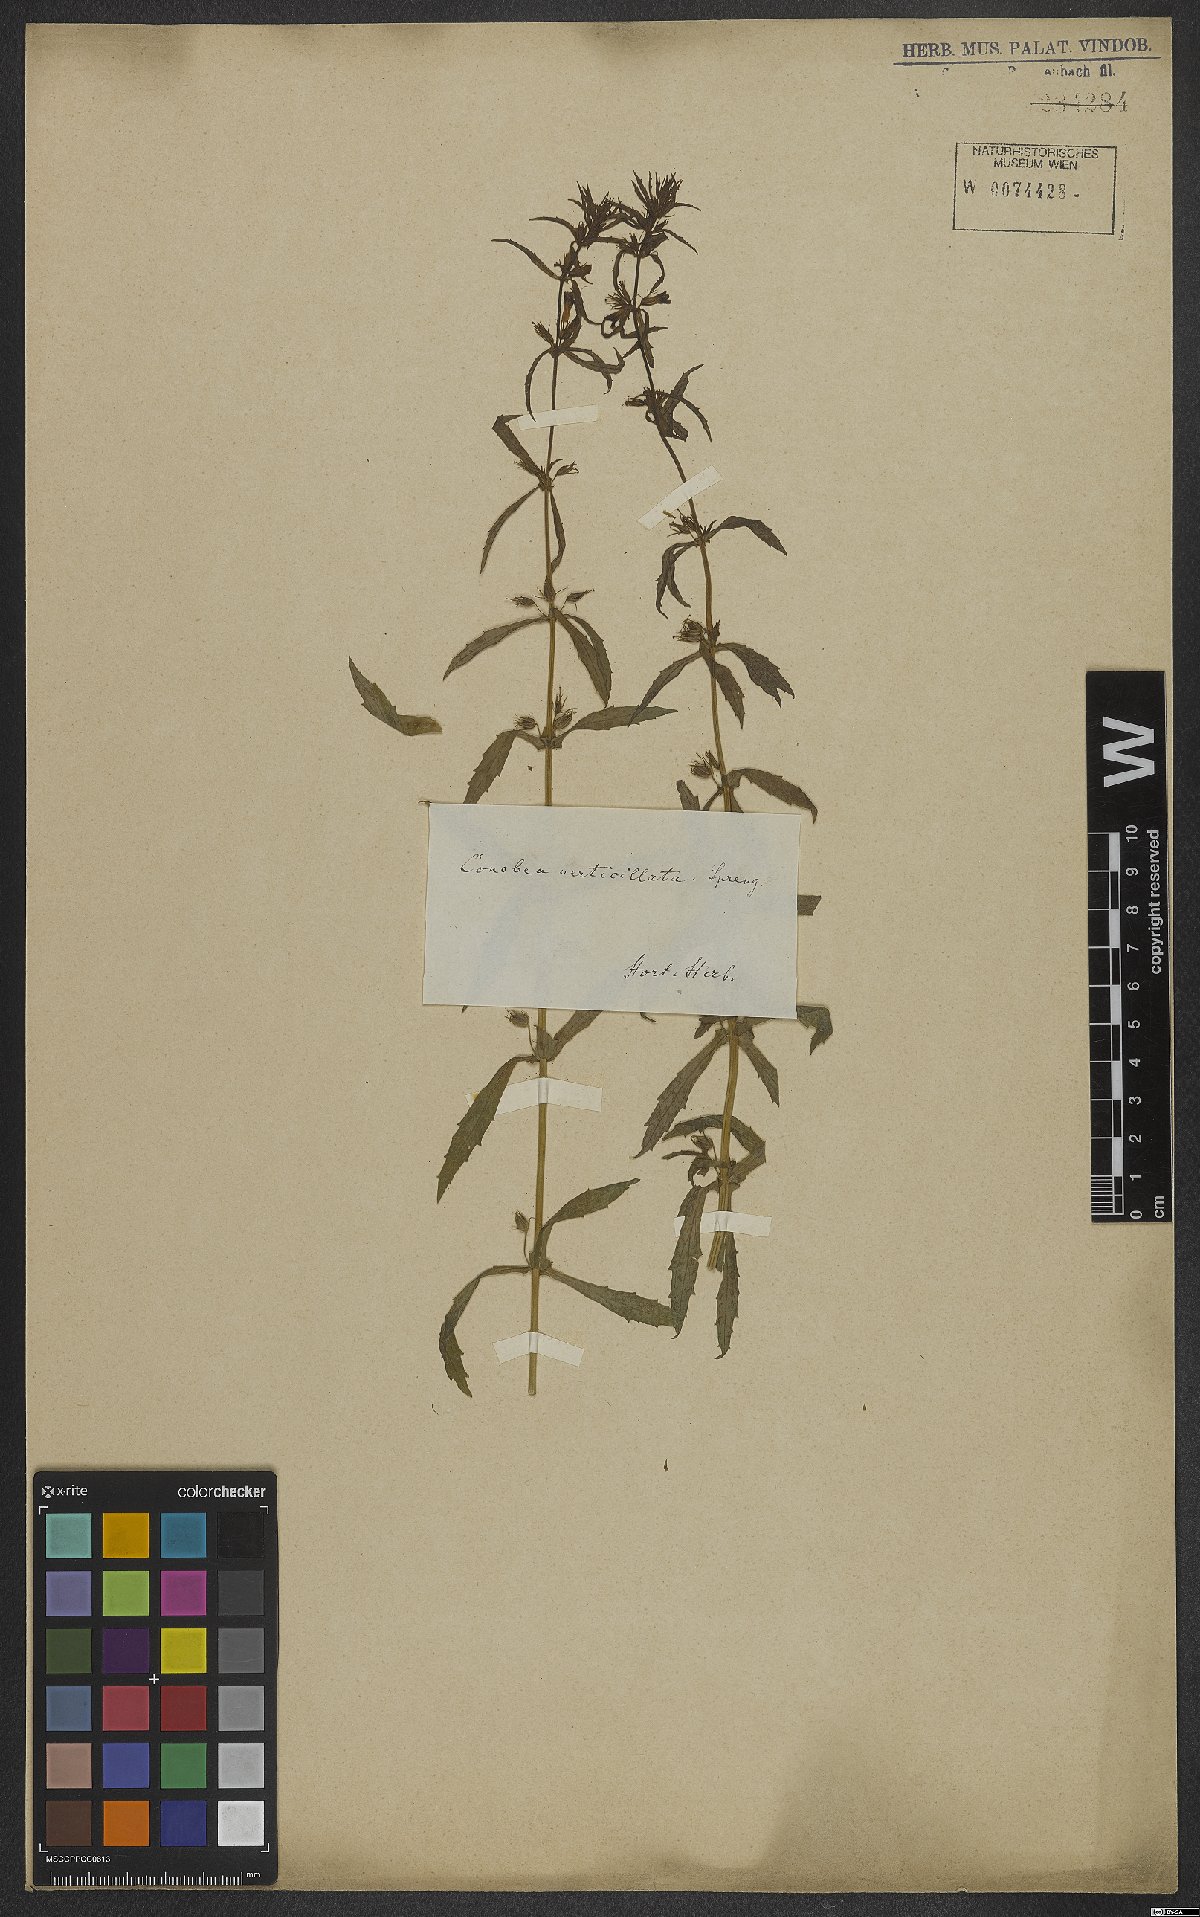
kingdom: Plantae
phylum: Tracheophyta
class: Magnoliopsida
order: Lamiales
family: Plantaginaceae
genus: Stemodia
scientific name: Stemodia verticillata
